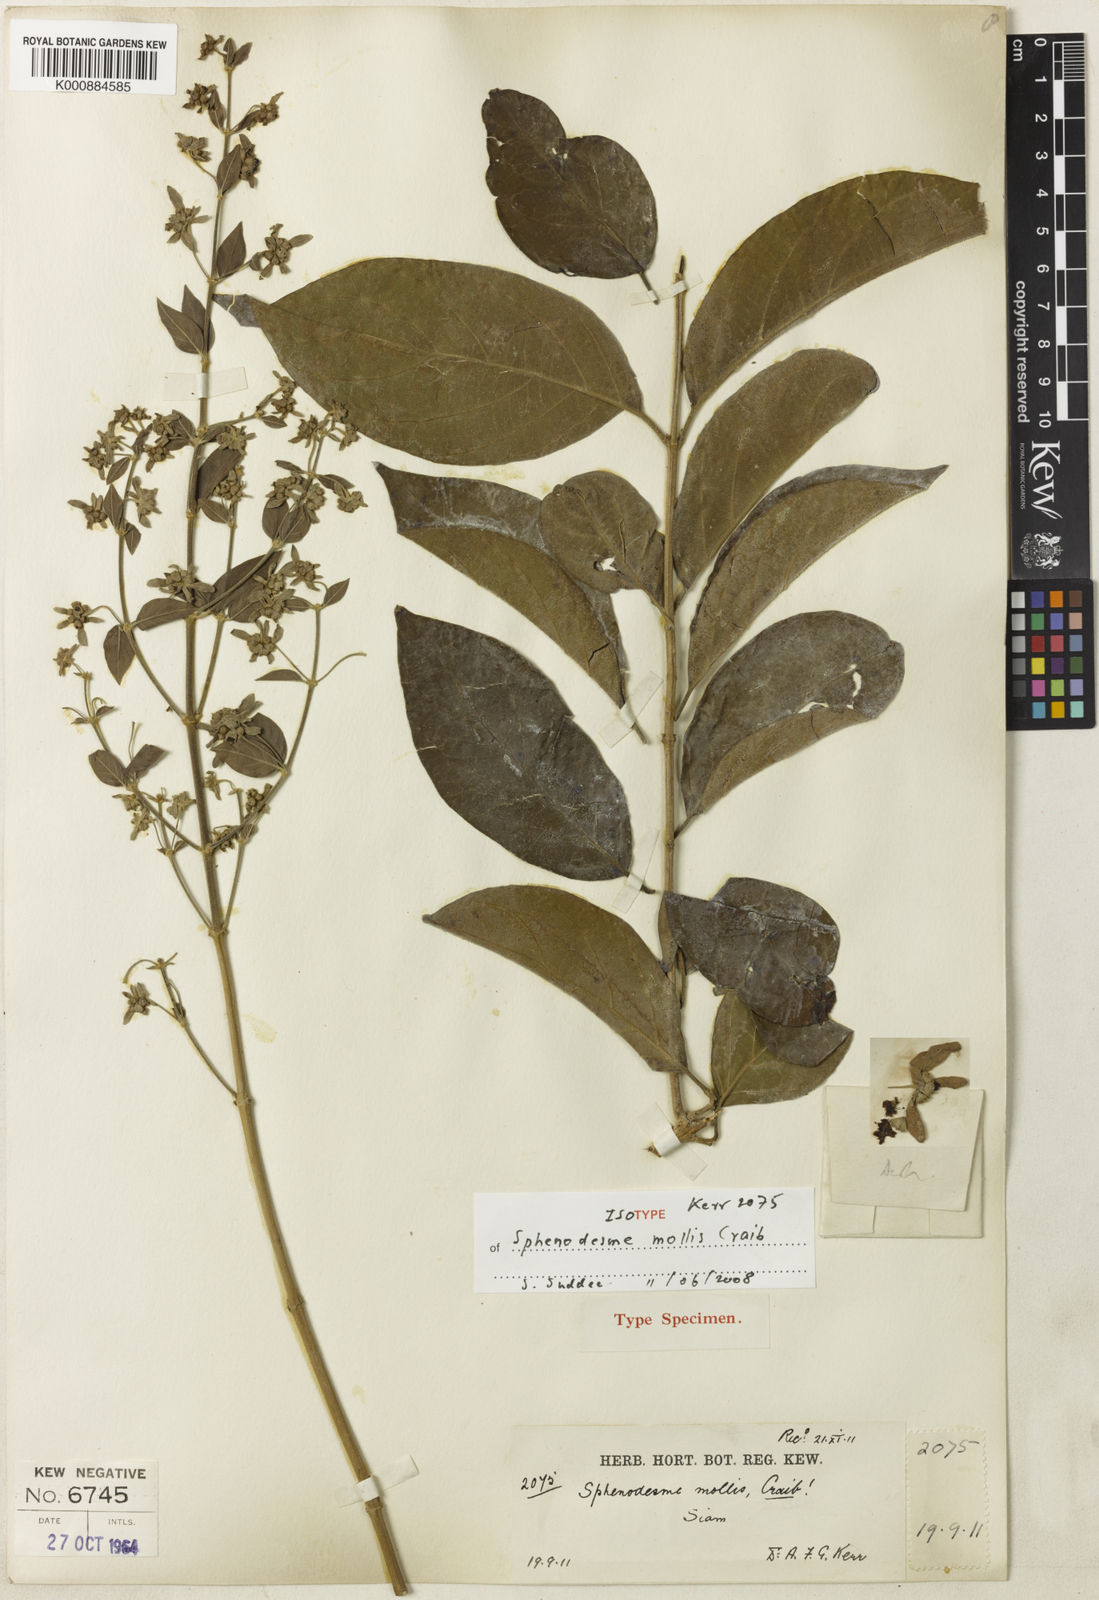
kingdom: Plantae
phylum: Tracheophyta
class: Magnoliopsida
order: Lamiales
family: Lamiaceae
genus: Sphenodesme
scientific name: Sphenodesme mollis
